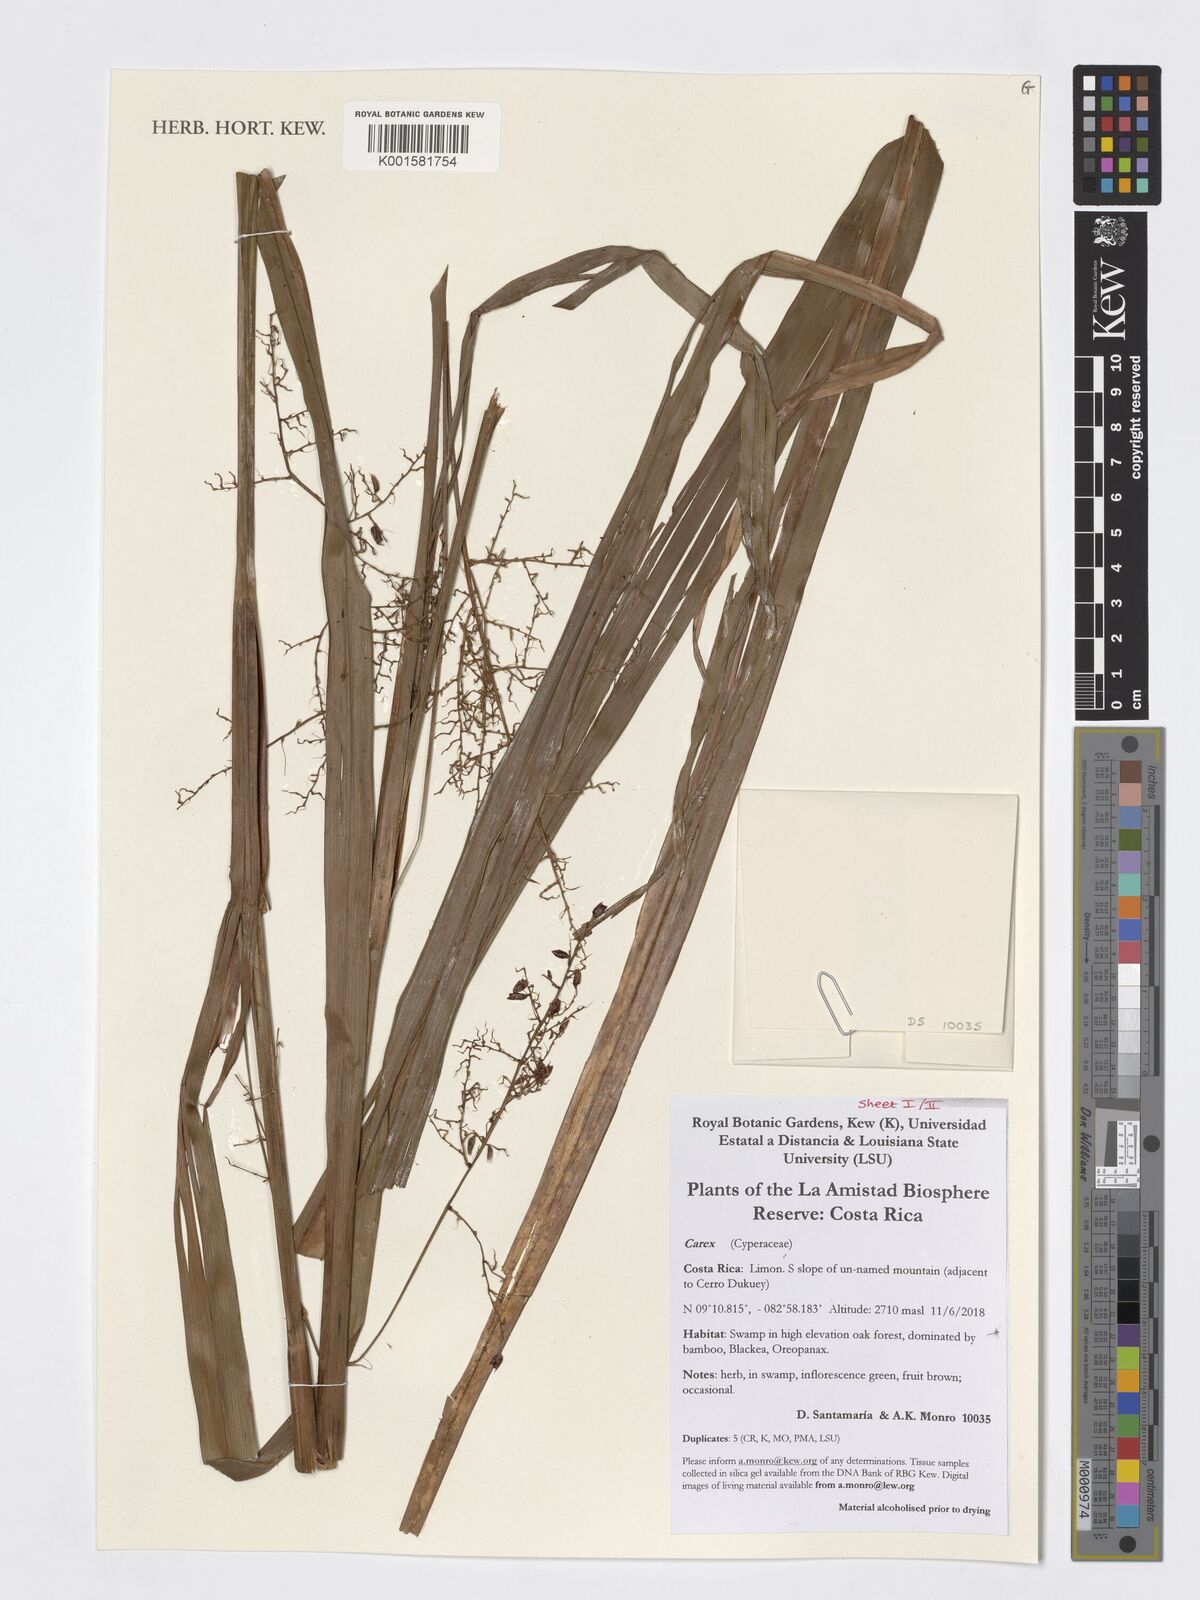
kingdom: Plantae
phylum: Tracheophyta
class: Liliopsida
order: Poales
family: Cyperaceae
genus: Carex
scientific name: Carex
